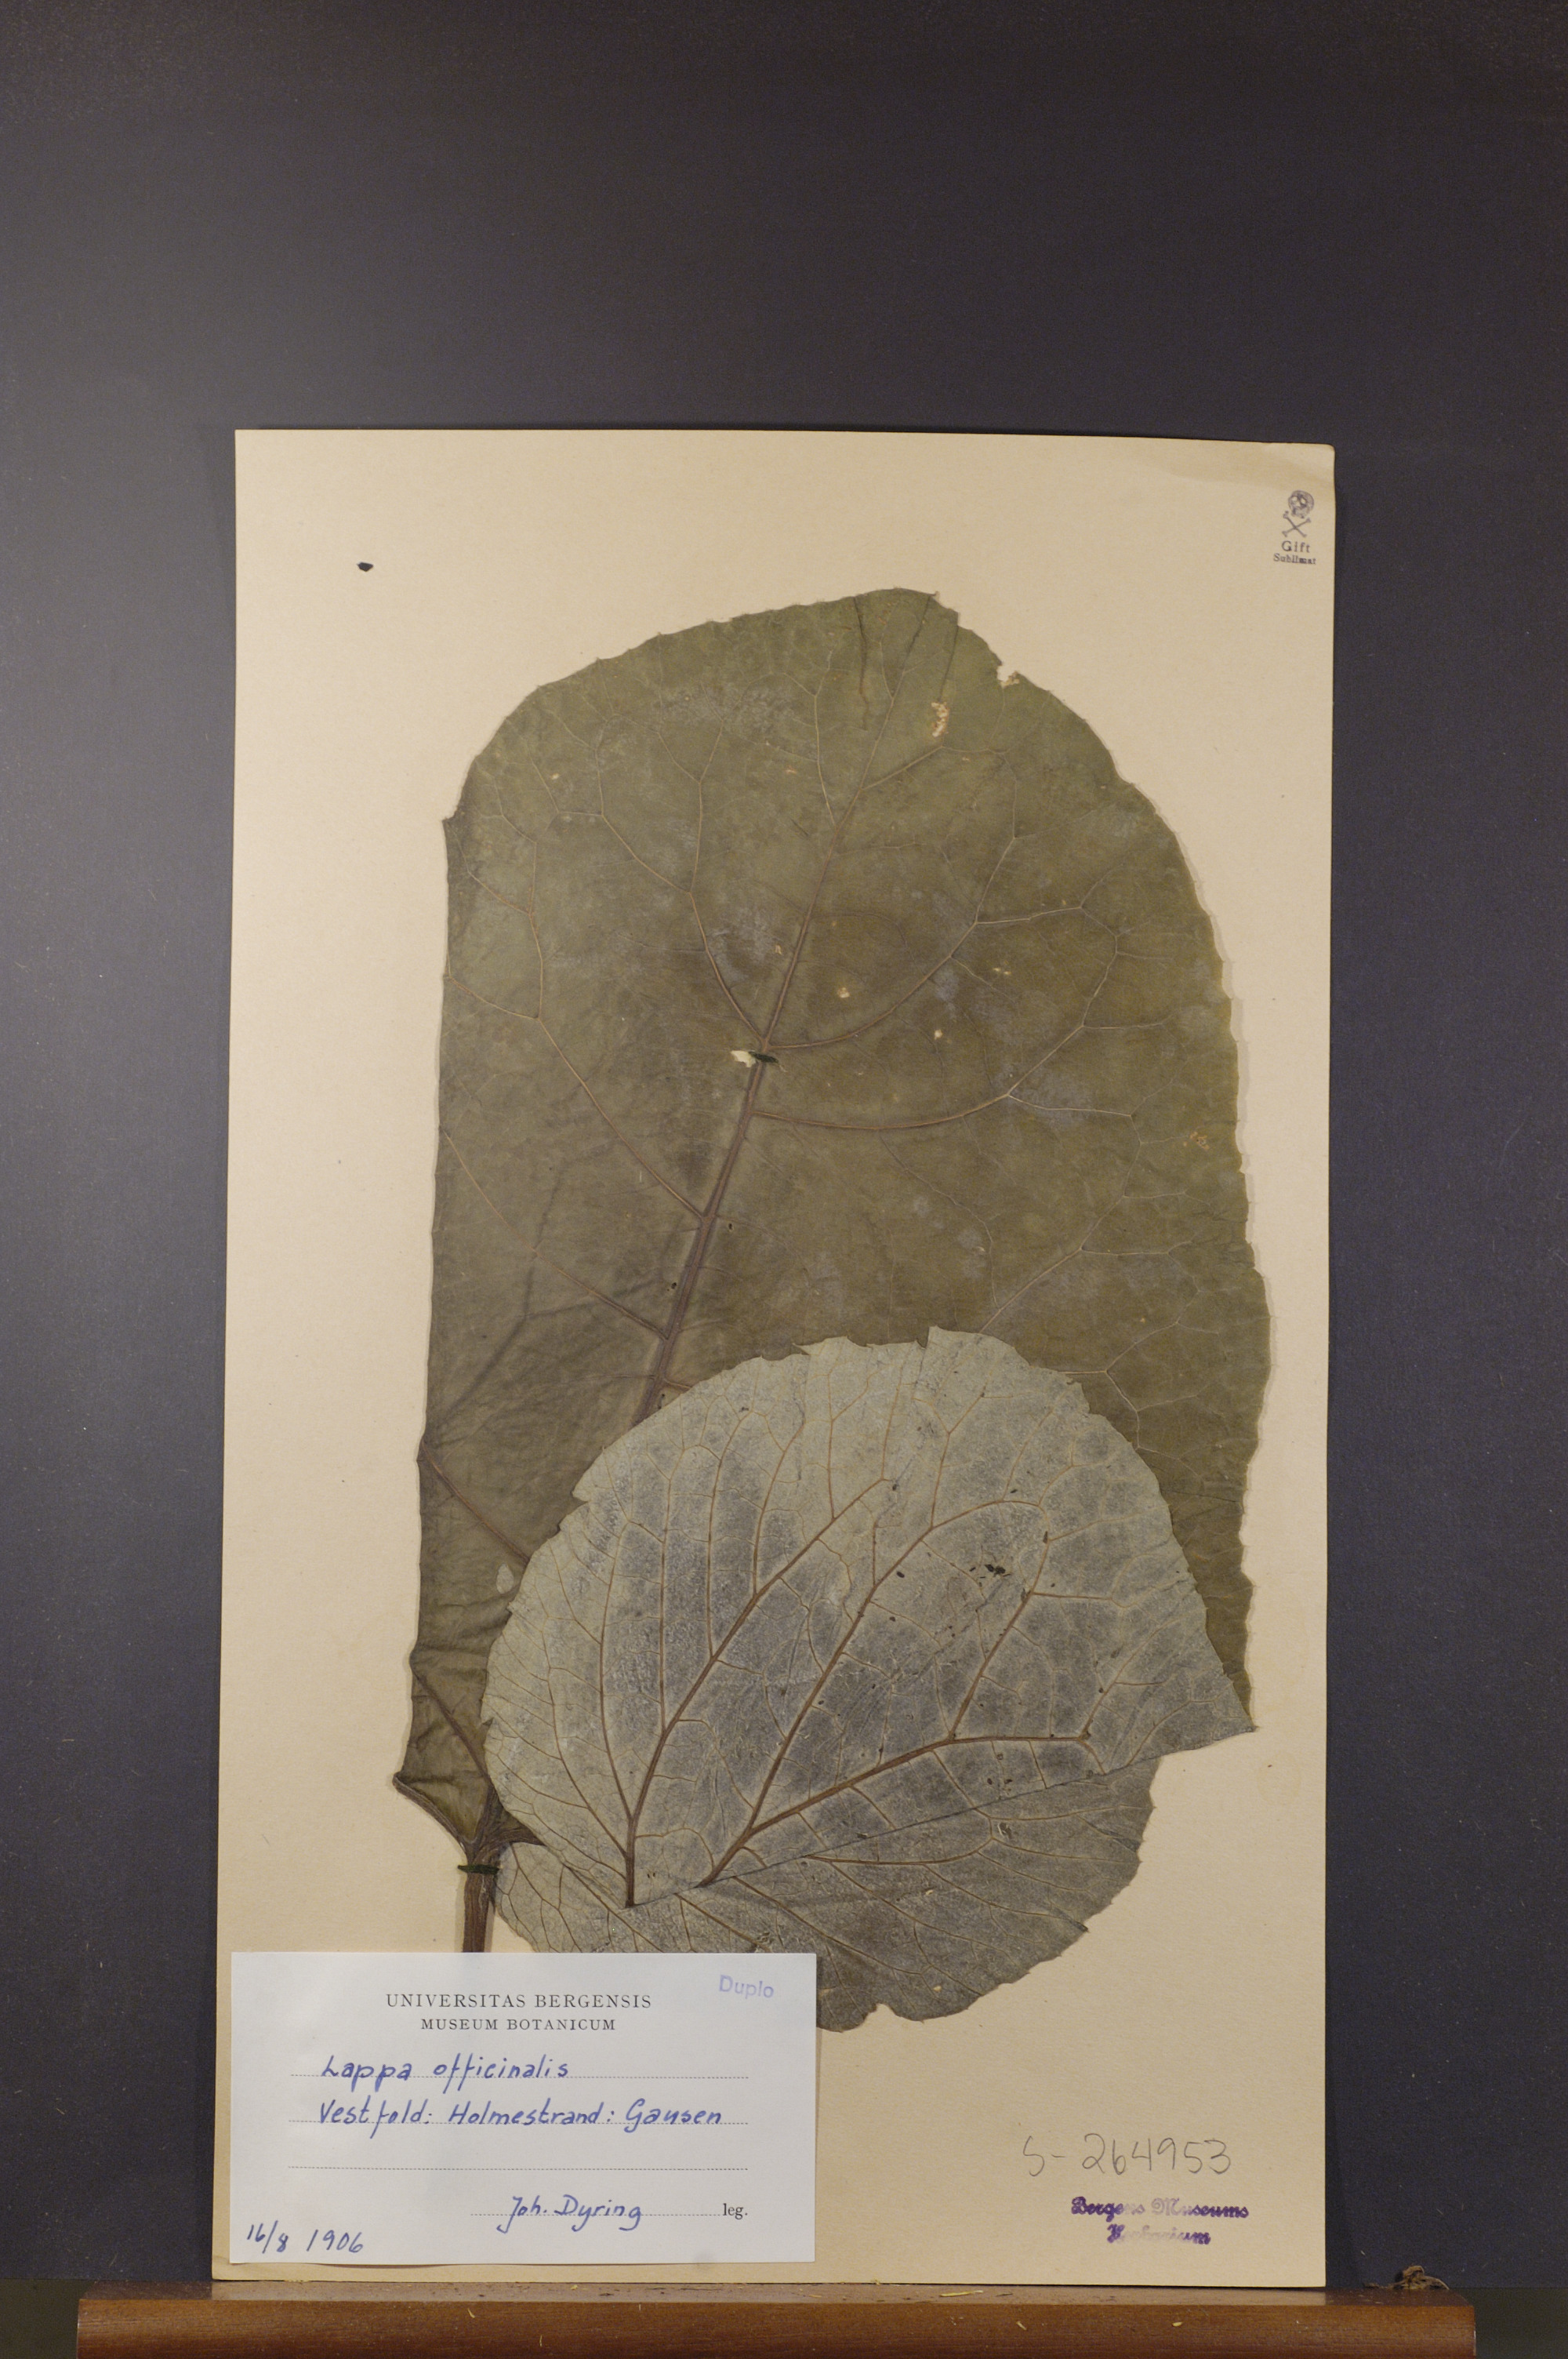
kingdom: Plantae
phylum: Tracheophyta
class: Magnoliopsida
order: Asterales
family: Asteraceae
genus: Arctium
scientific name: Arctium lappa
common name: Greater burdock
